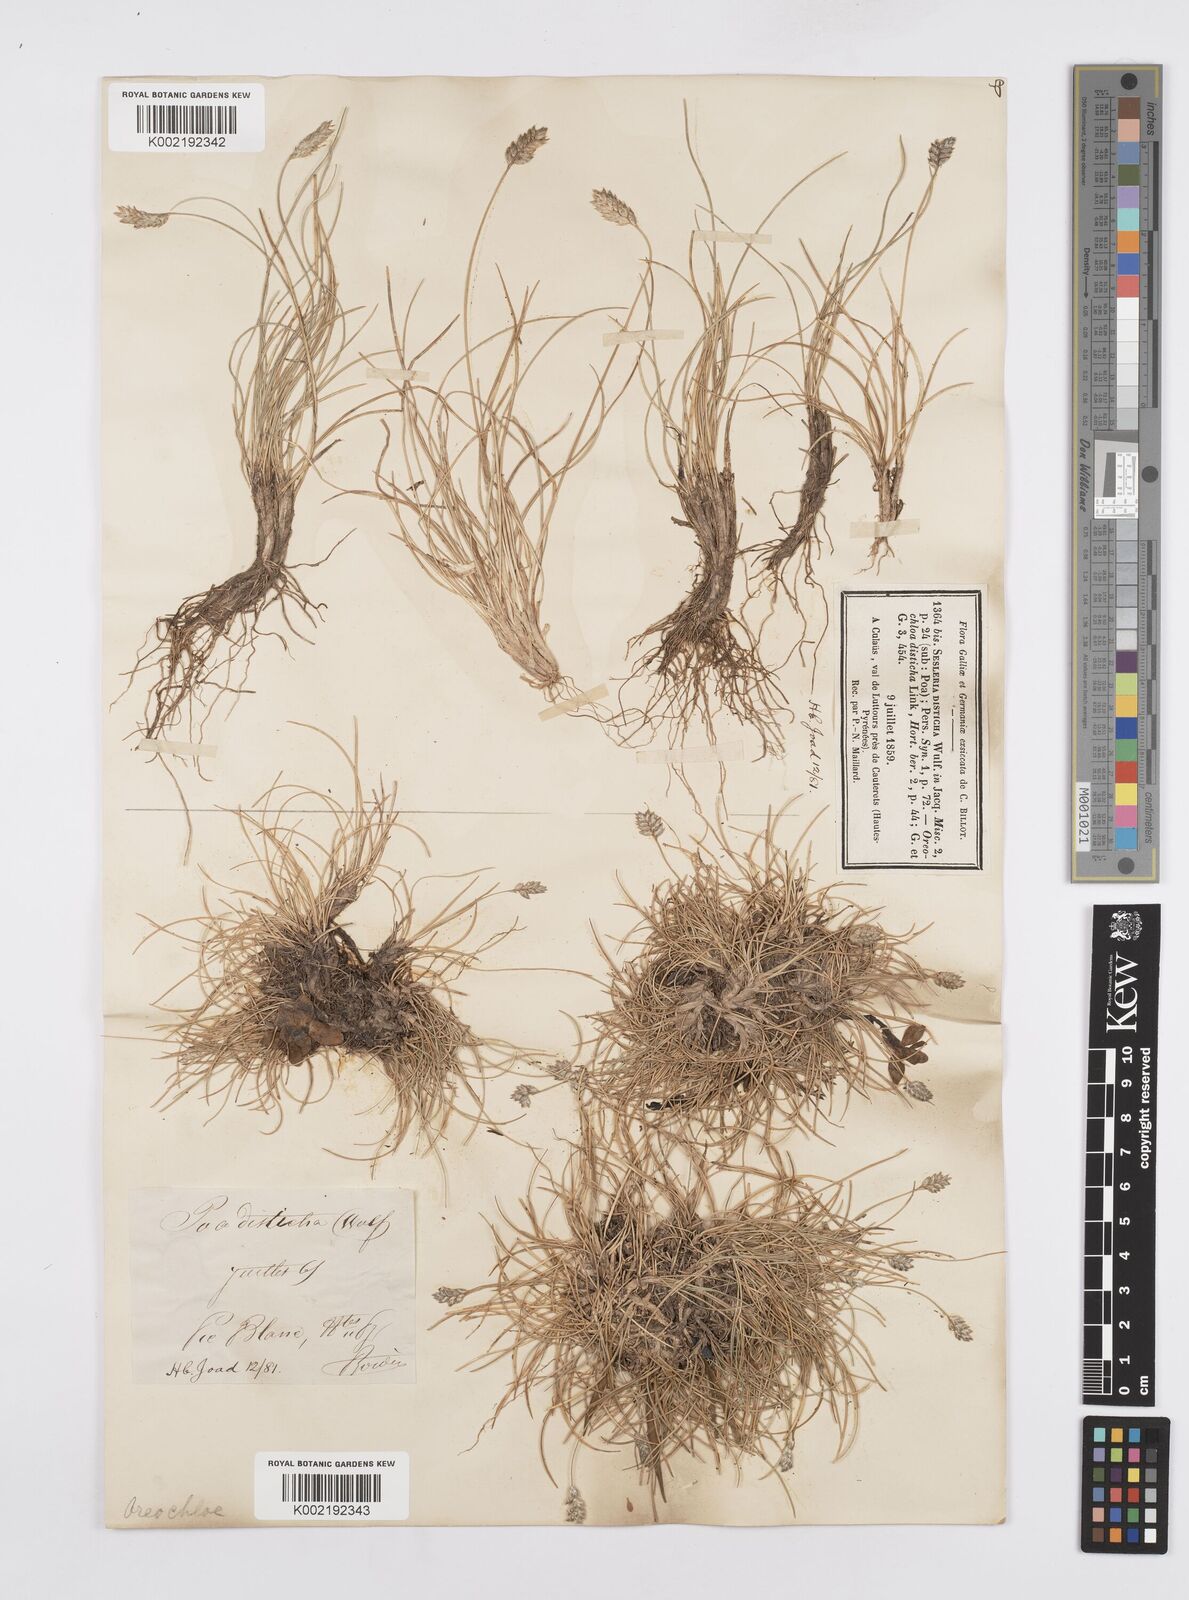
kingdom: Plantae
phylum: Tracheophyta
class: Liliopsida
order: Poales
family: Poaceae
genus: Oreochloa
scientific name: Oreochloa elegans
